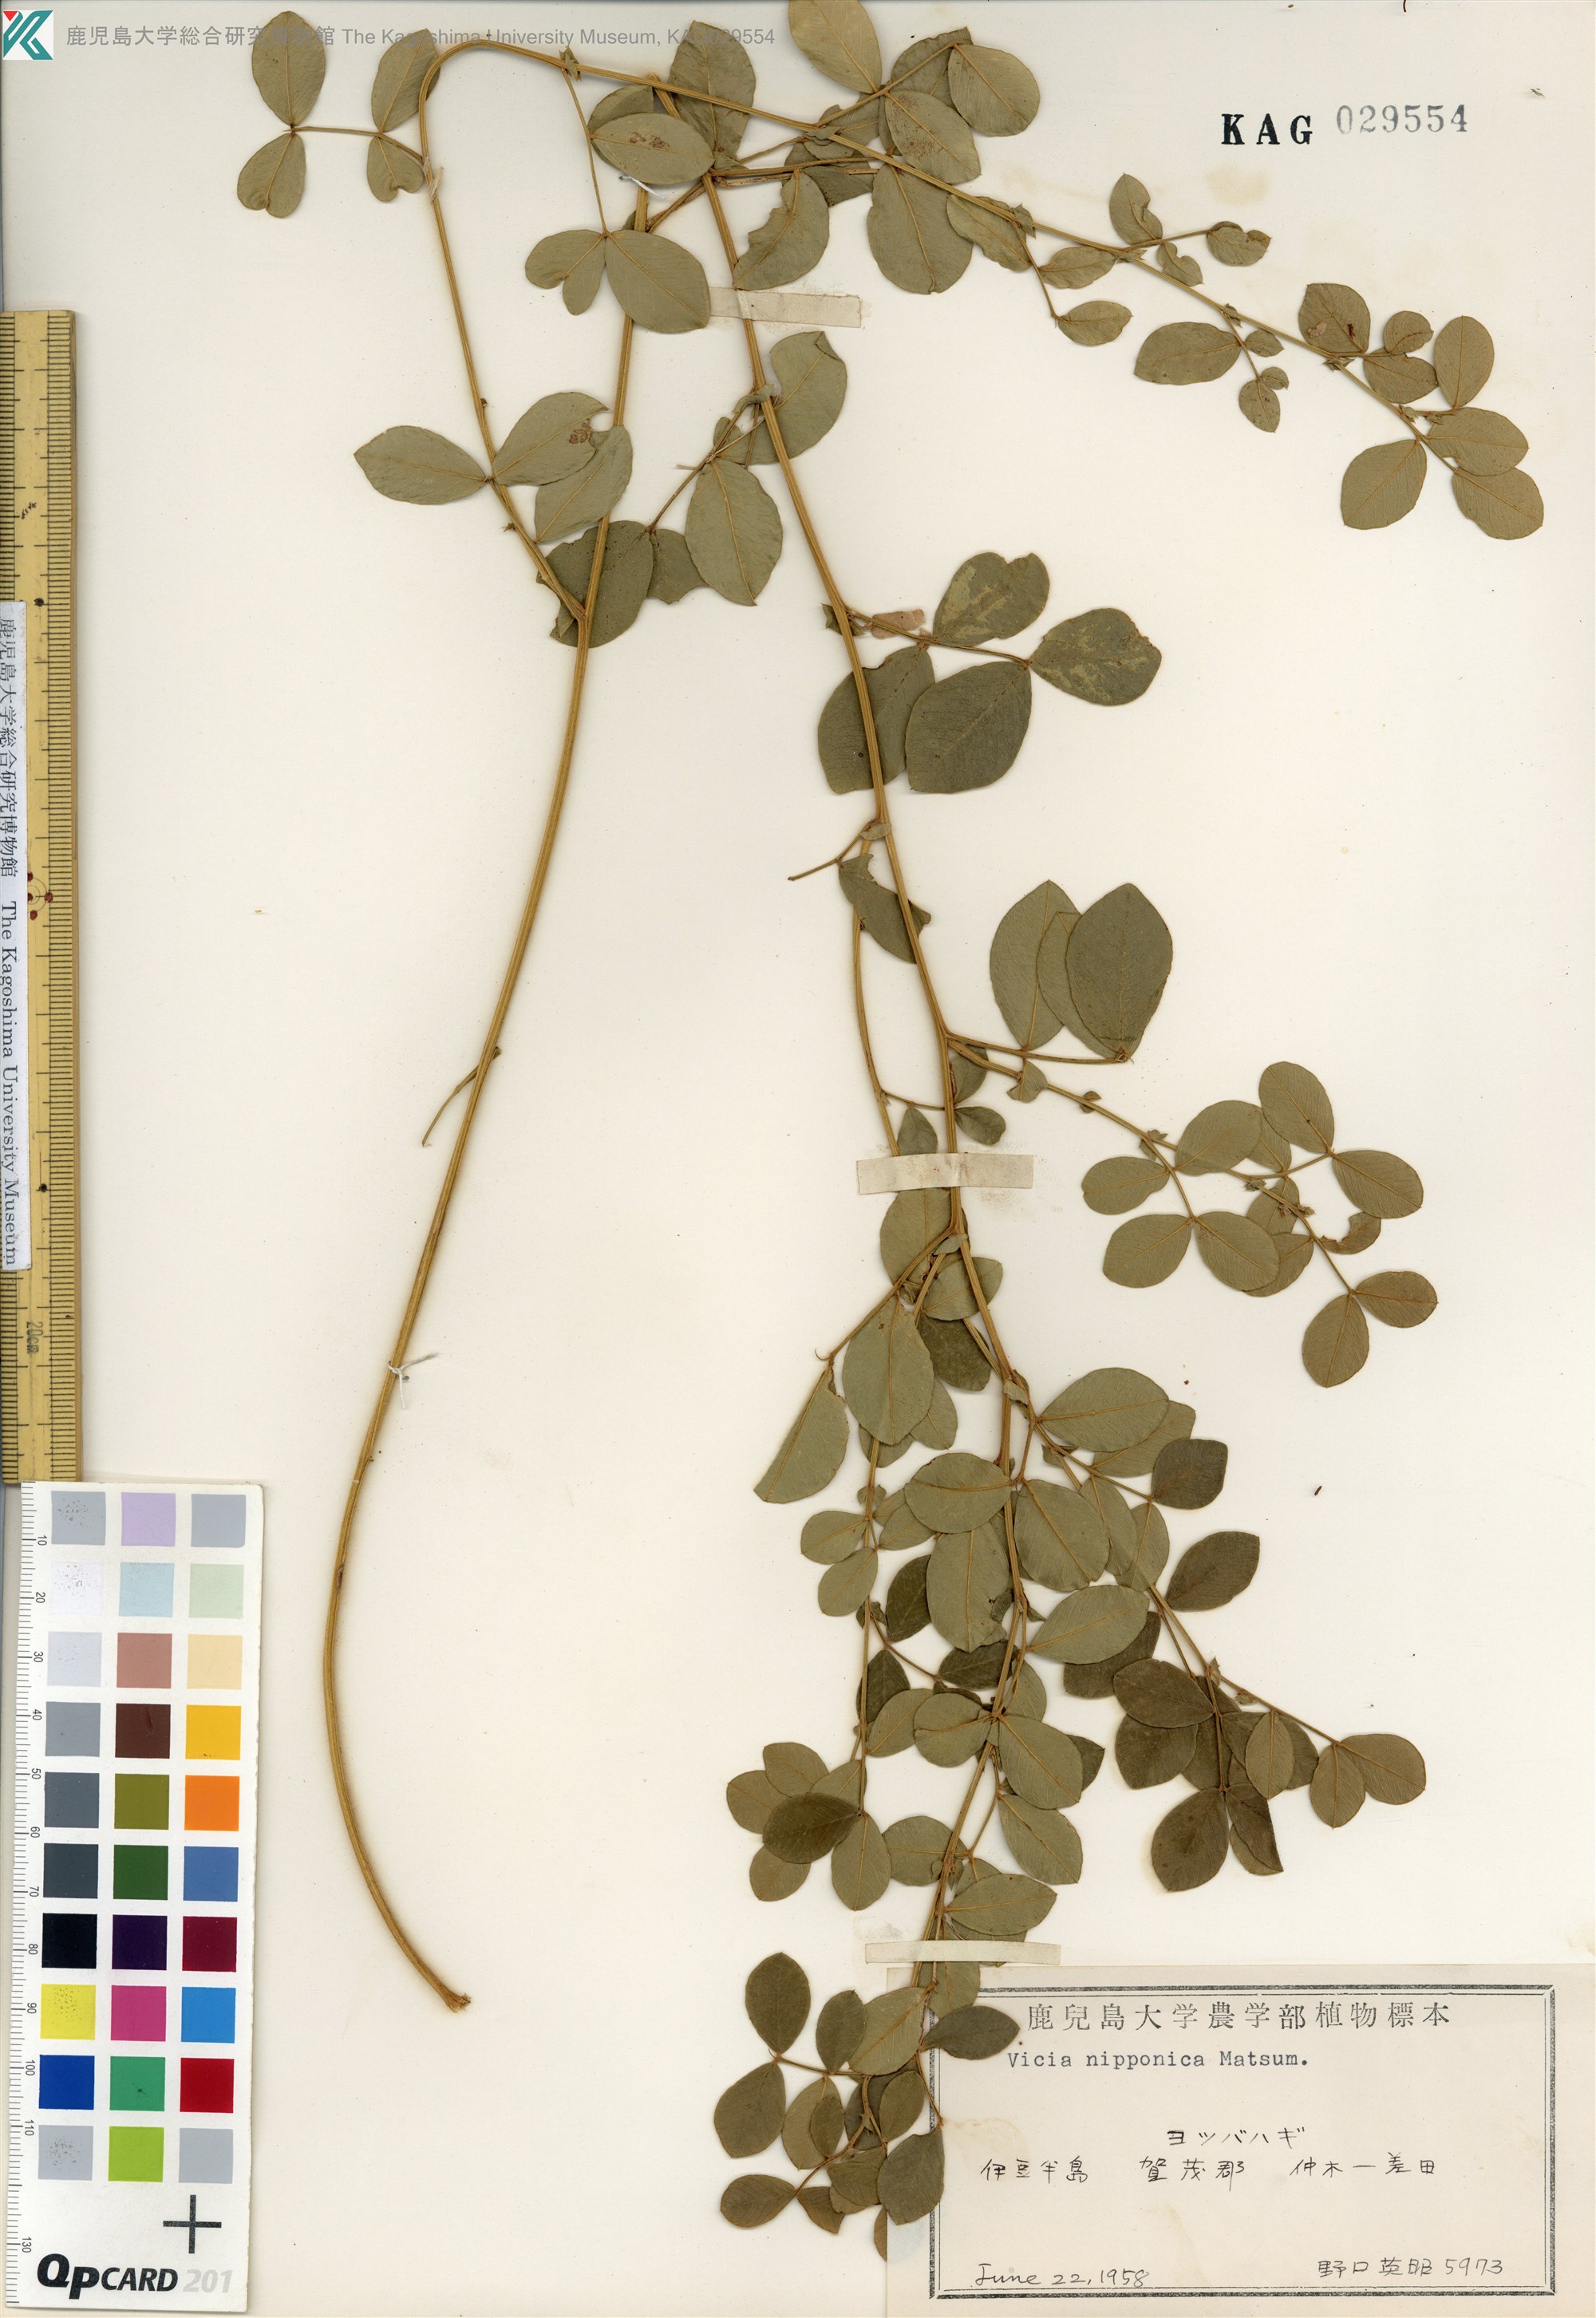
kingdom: Plantae
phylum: Tracheophyta
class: Magnoliopsida
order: Fabales
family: Fabaceae
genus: Vicia
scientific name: Vicia nipponica
